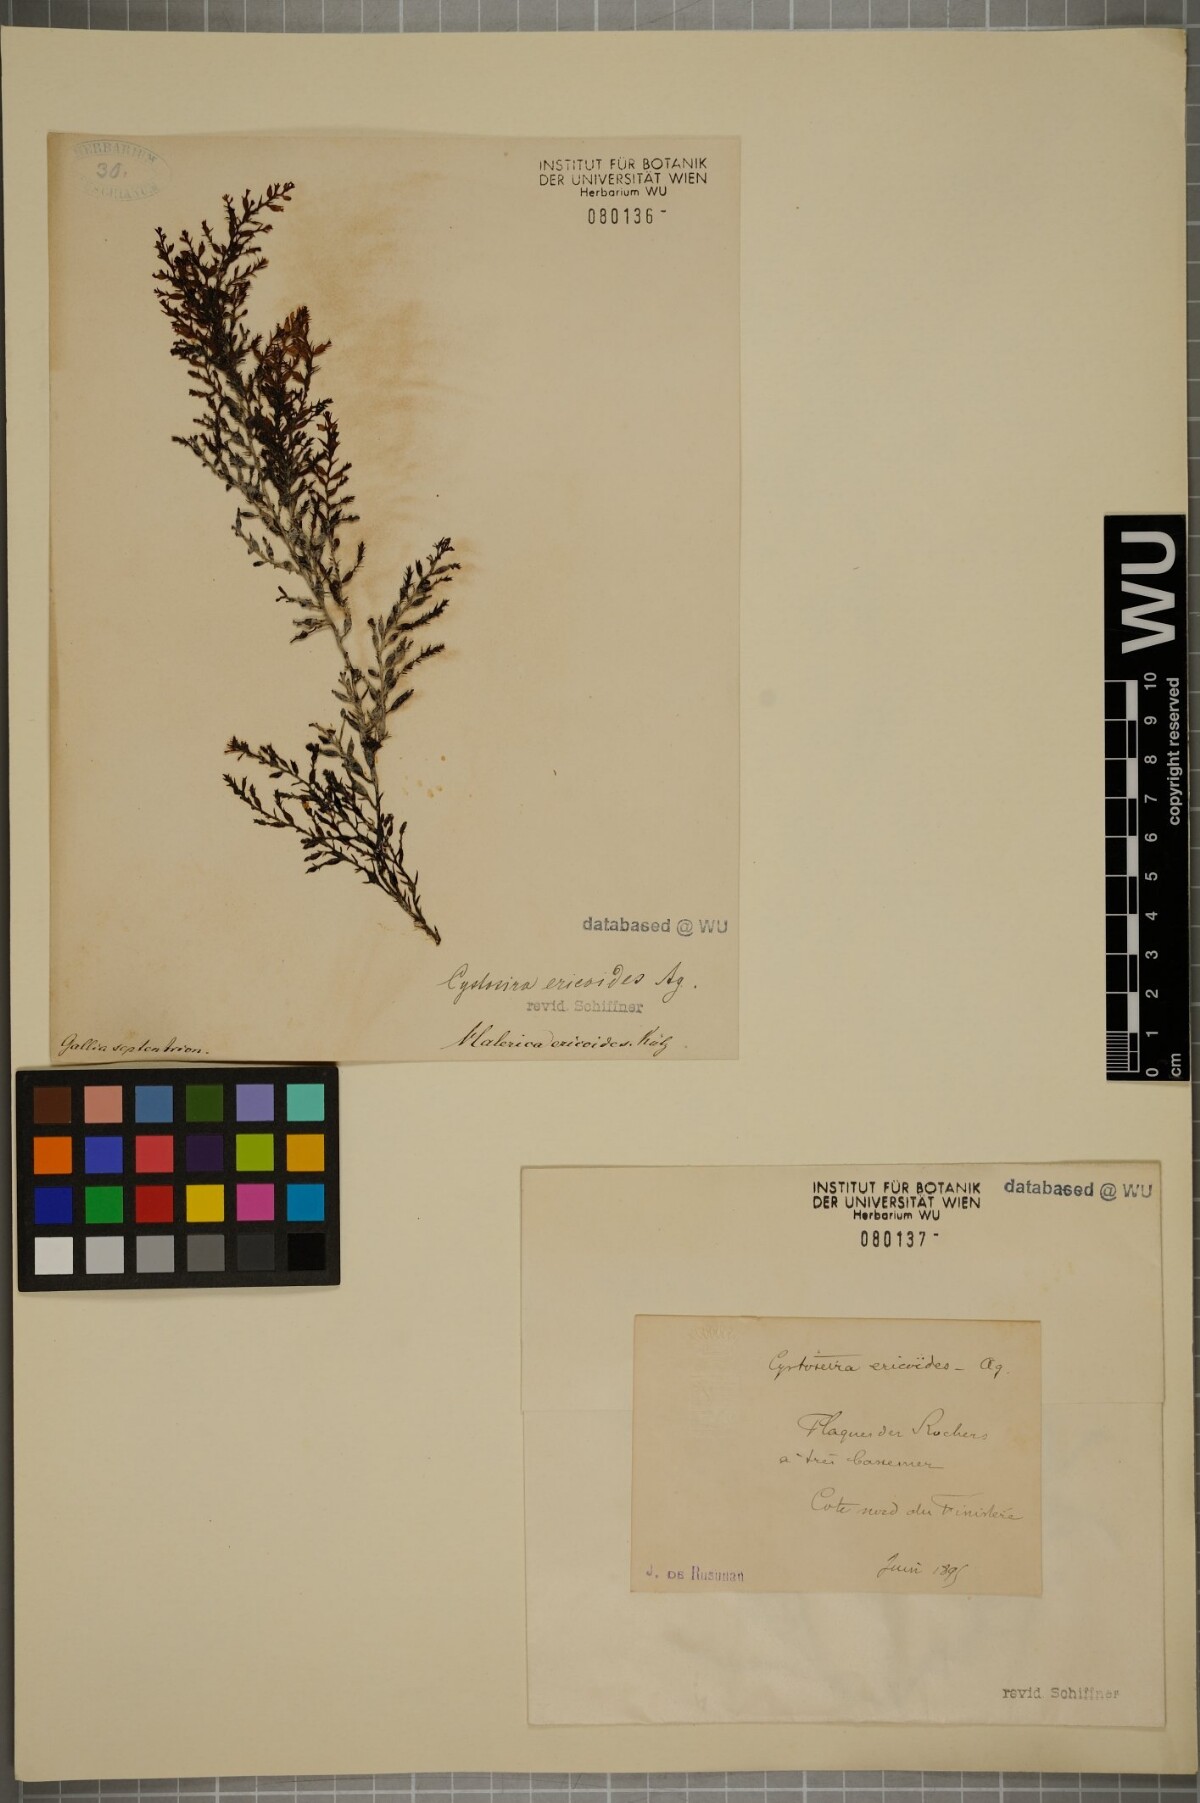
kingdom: Chromista
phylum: Ochrophyta
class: Phaeophyceae
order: Fucales
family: Sargassaceae
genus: Cystoseira
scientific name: Cystoseira Ericaria selaginoides
